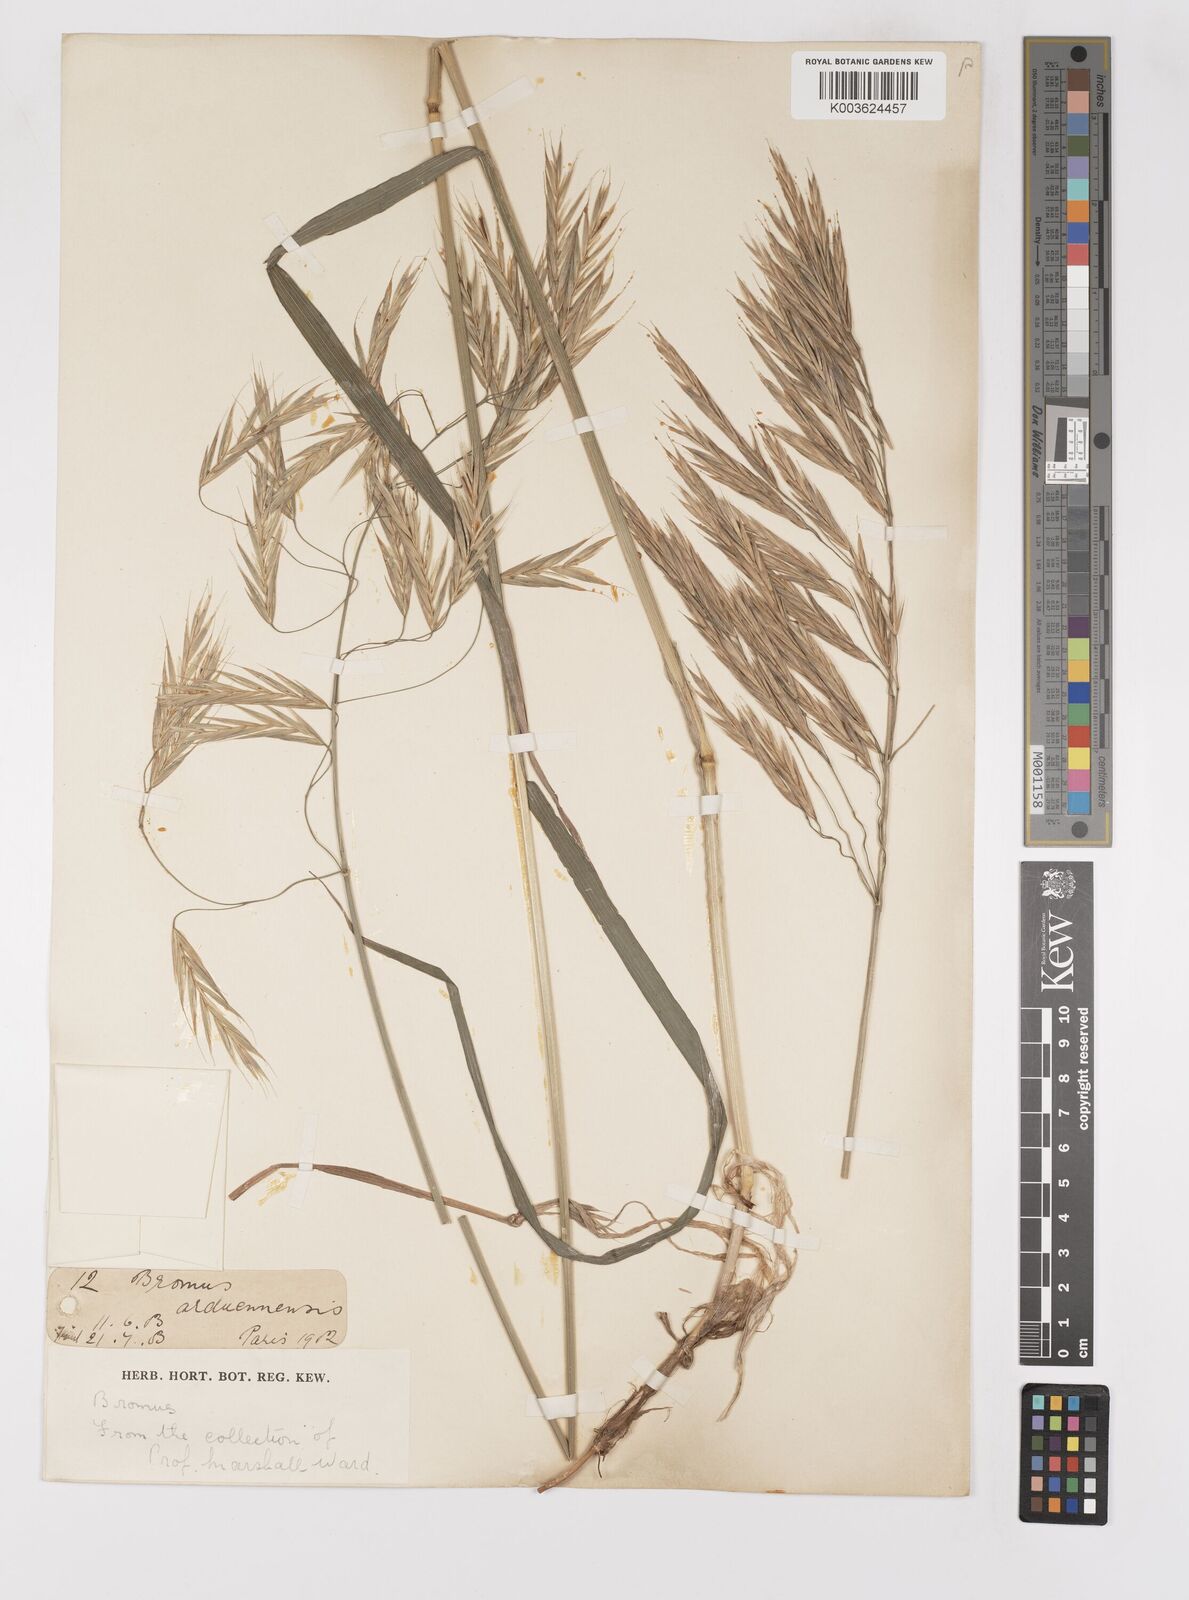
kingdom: Plantae
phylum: Tracheophyta
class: Liliopsida
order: Poales
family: Poaceae
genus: Bromus
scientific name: Bromus
